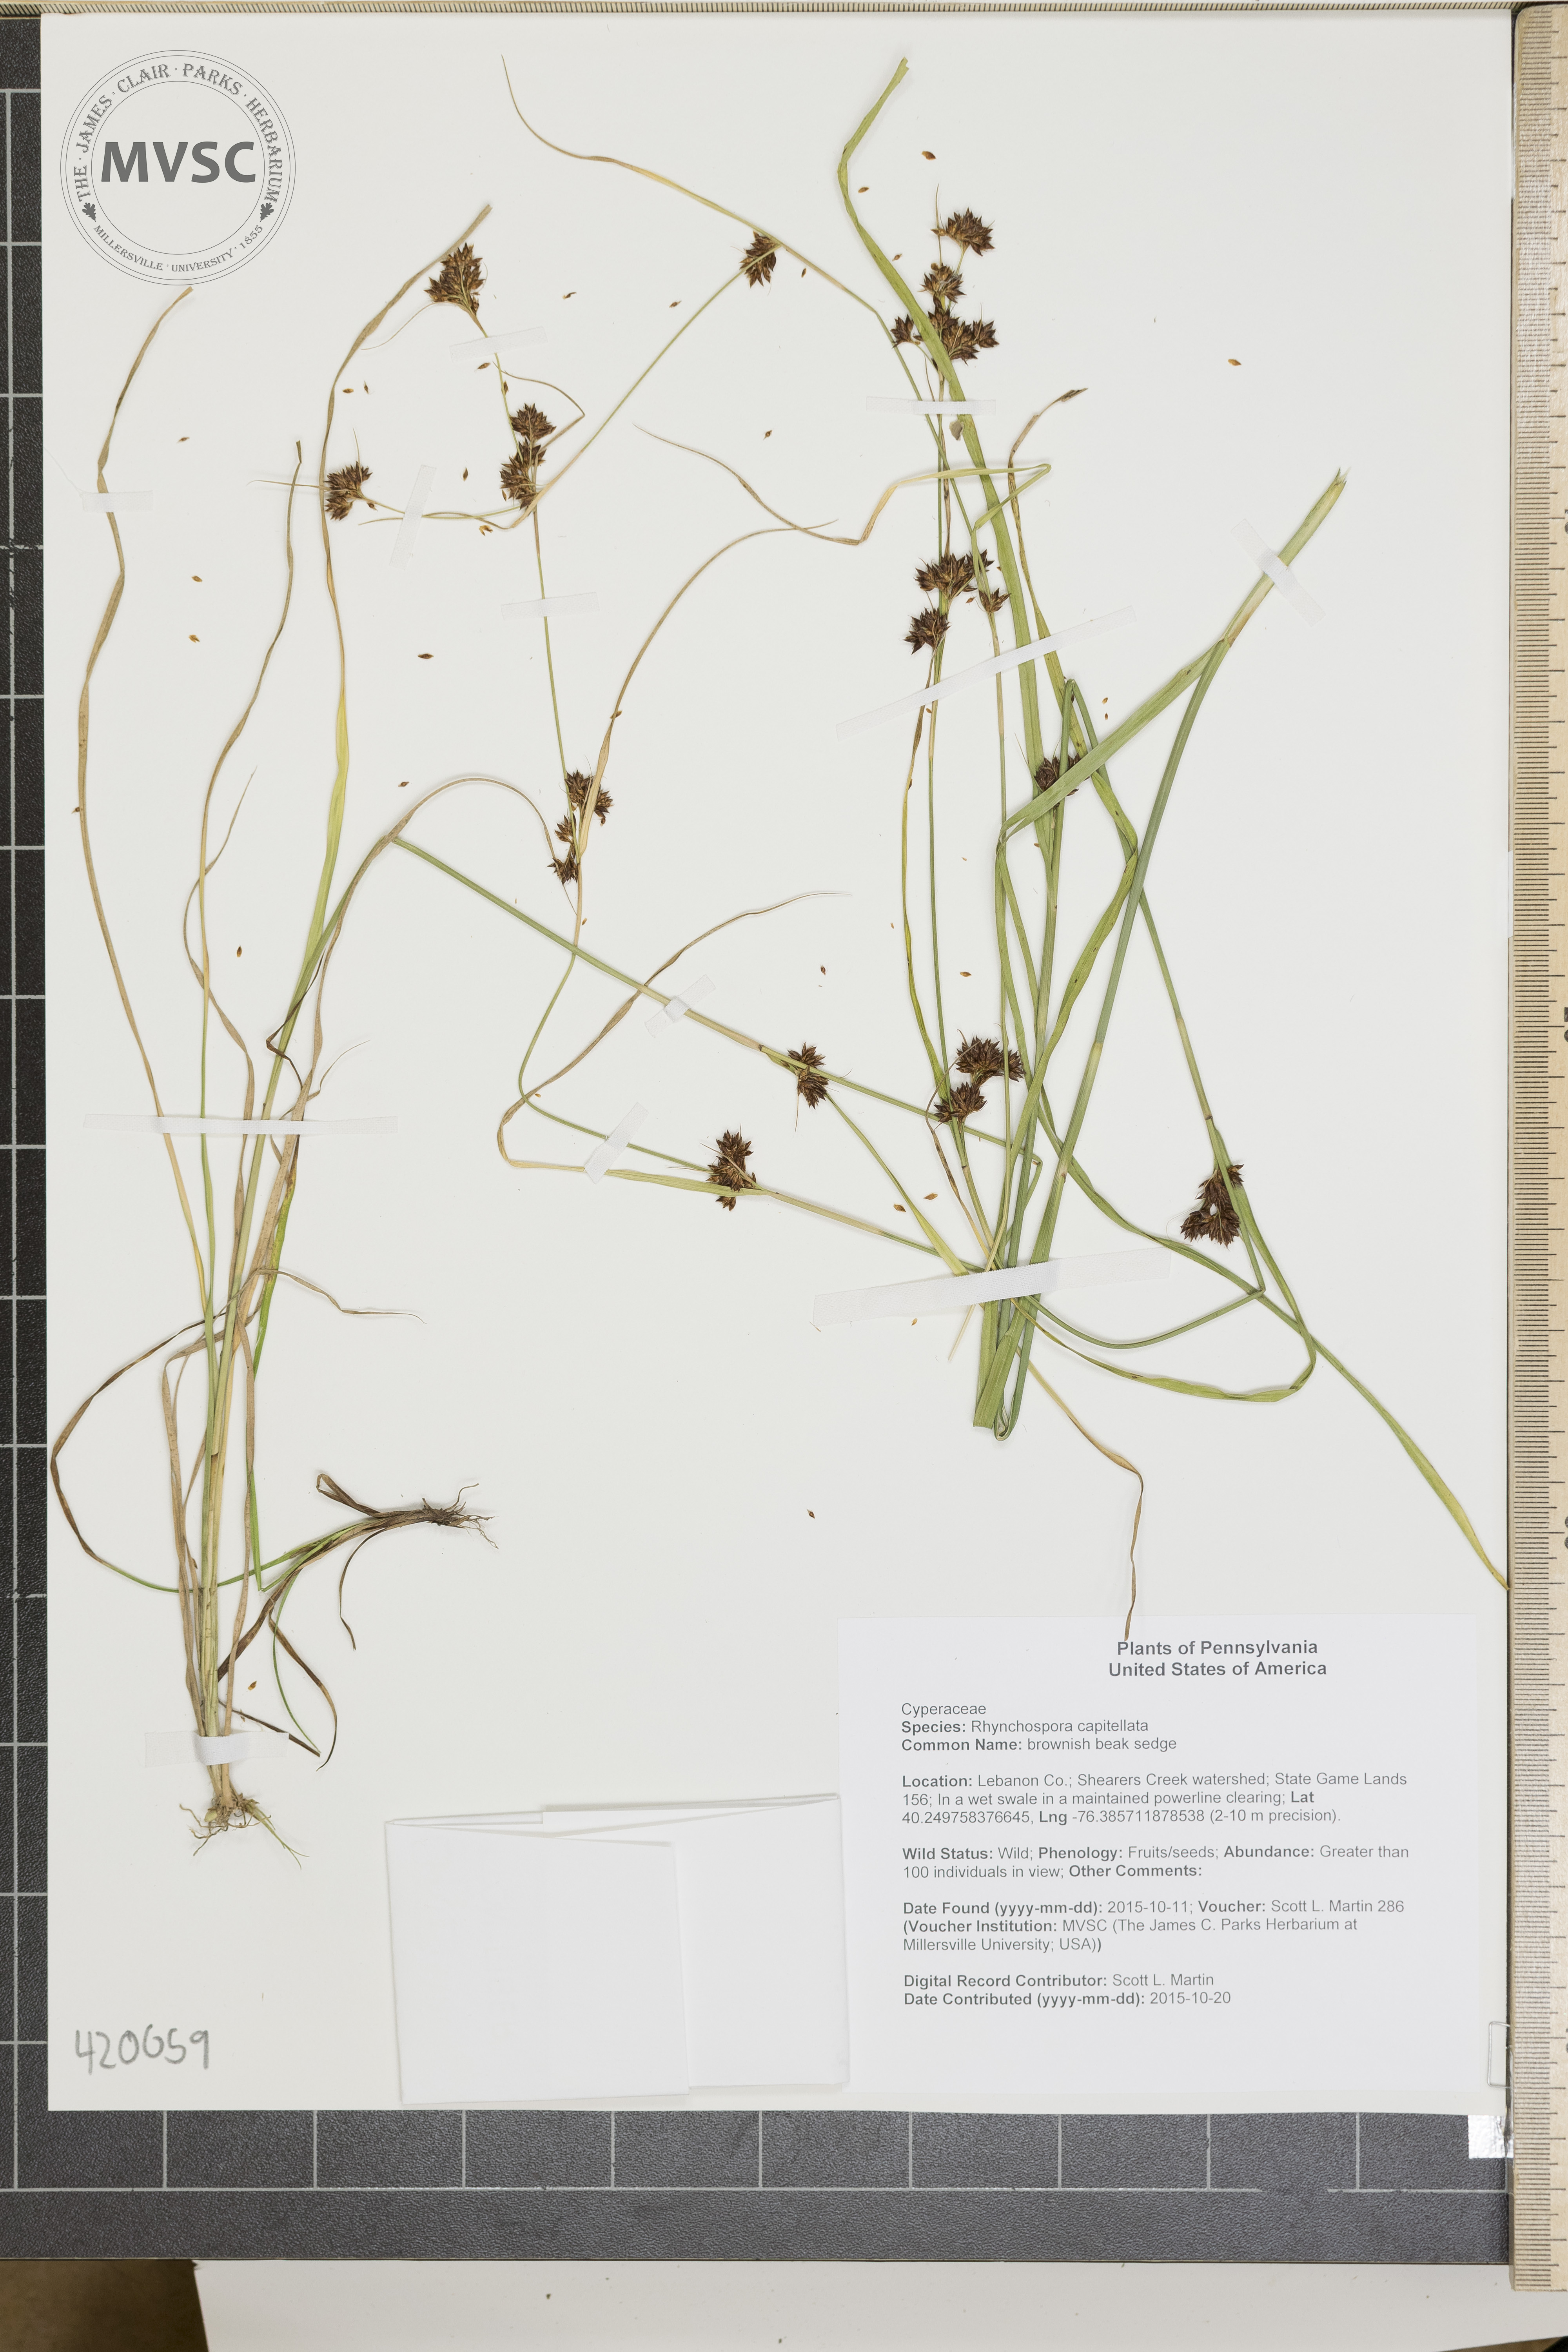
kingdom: Plantae
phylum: Tracheophyta
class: Liliopsida
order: Poales
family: Cyperaceae
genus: Rhynchospora
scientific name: Rhynchospora capitellata
